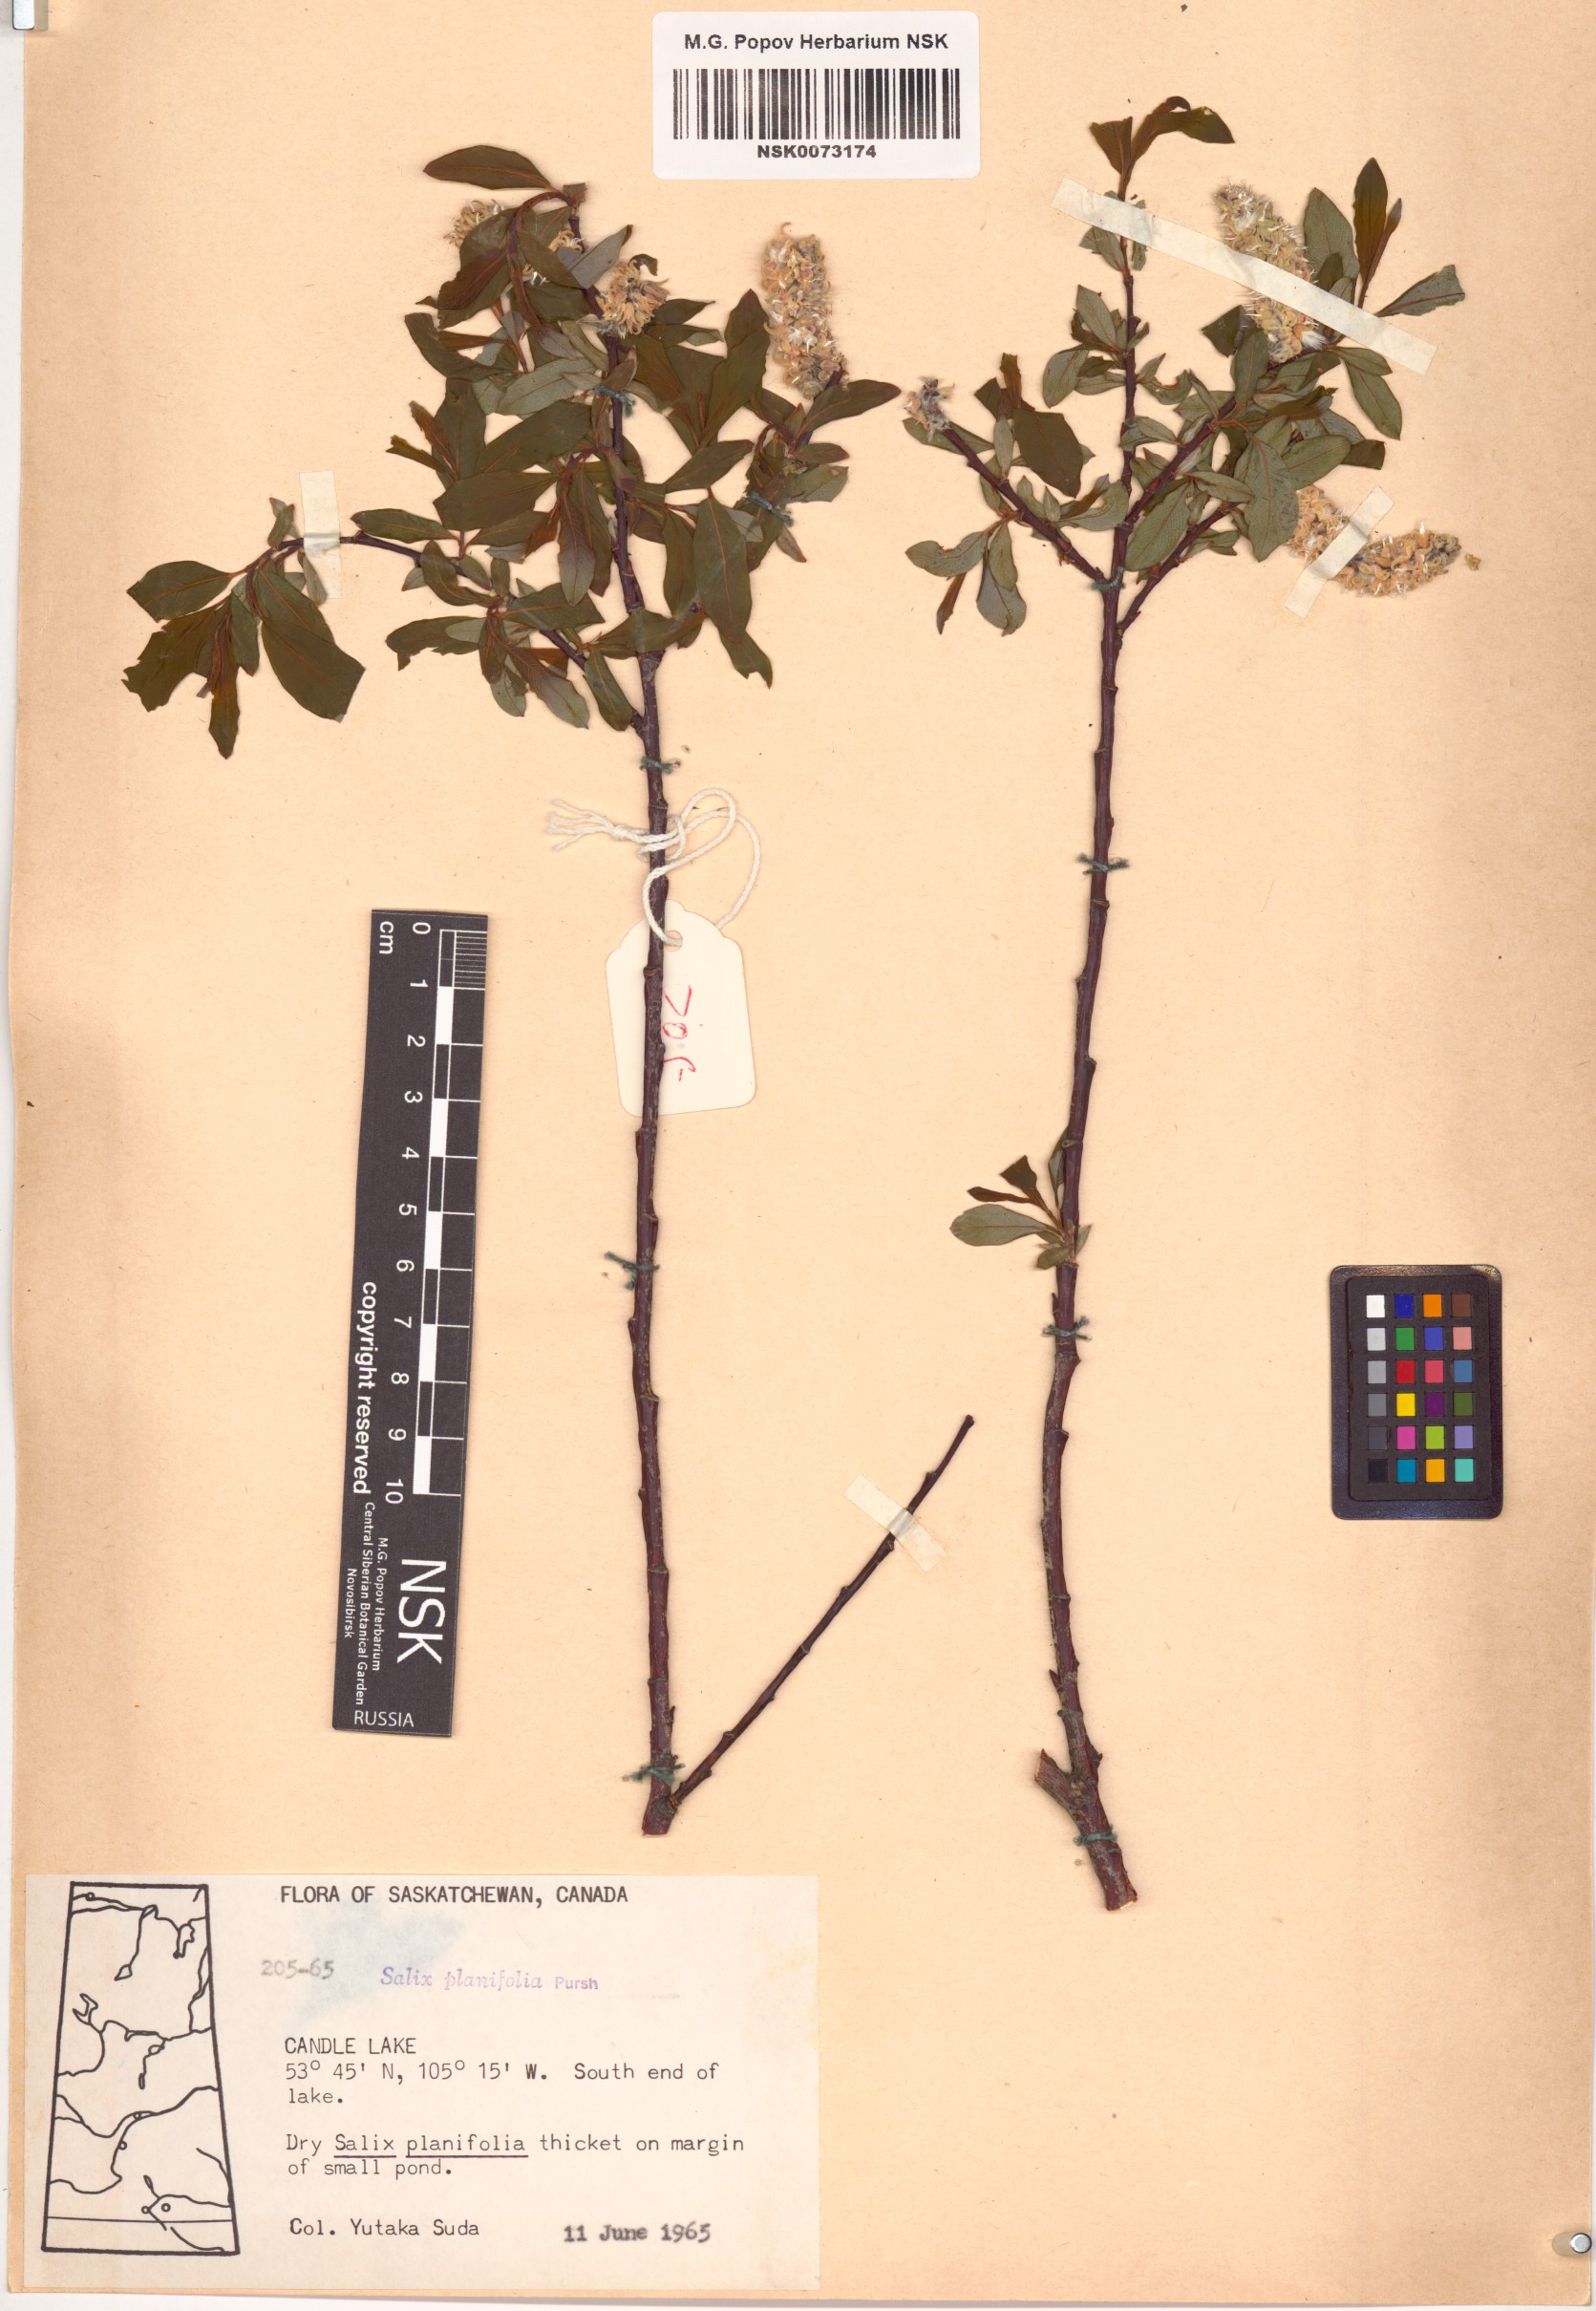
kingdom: Plantae
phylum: Tracheophyta
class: Magnoliopsida
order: Malpighiales
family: Salicaceae
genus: Salix
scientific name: Salix planifolia
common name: Mountain willow
